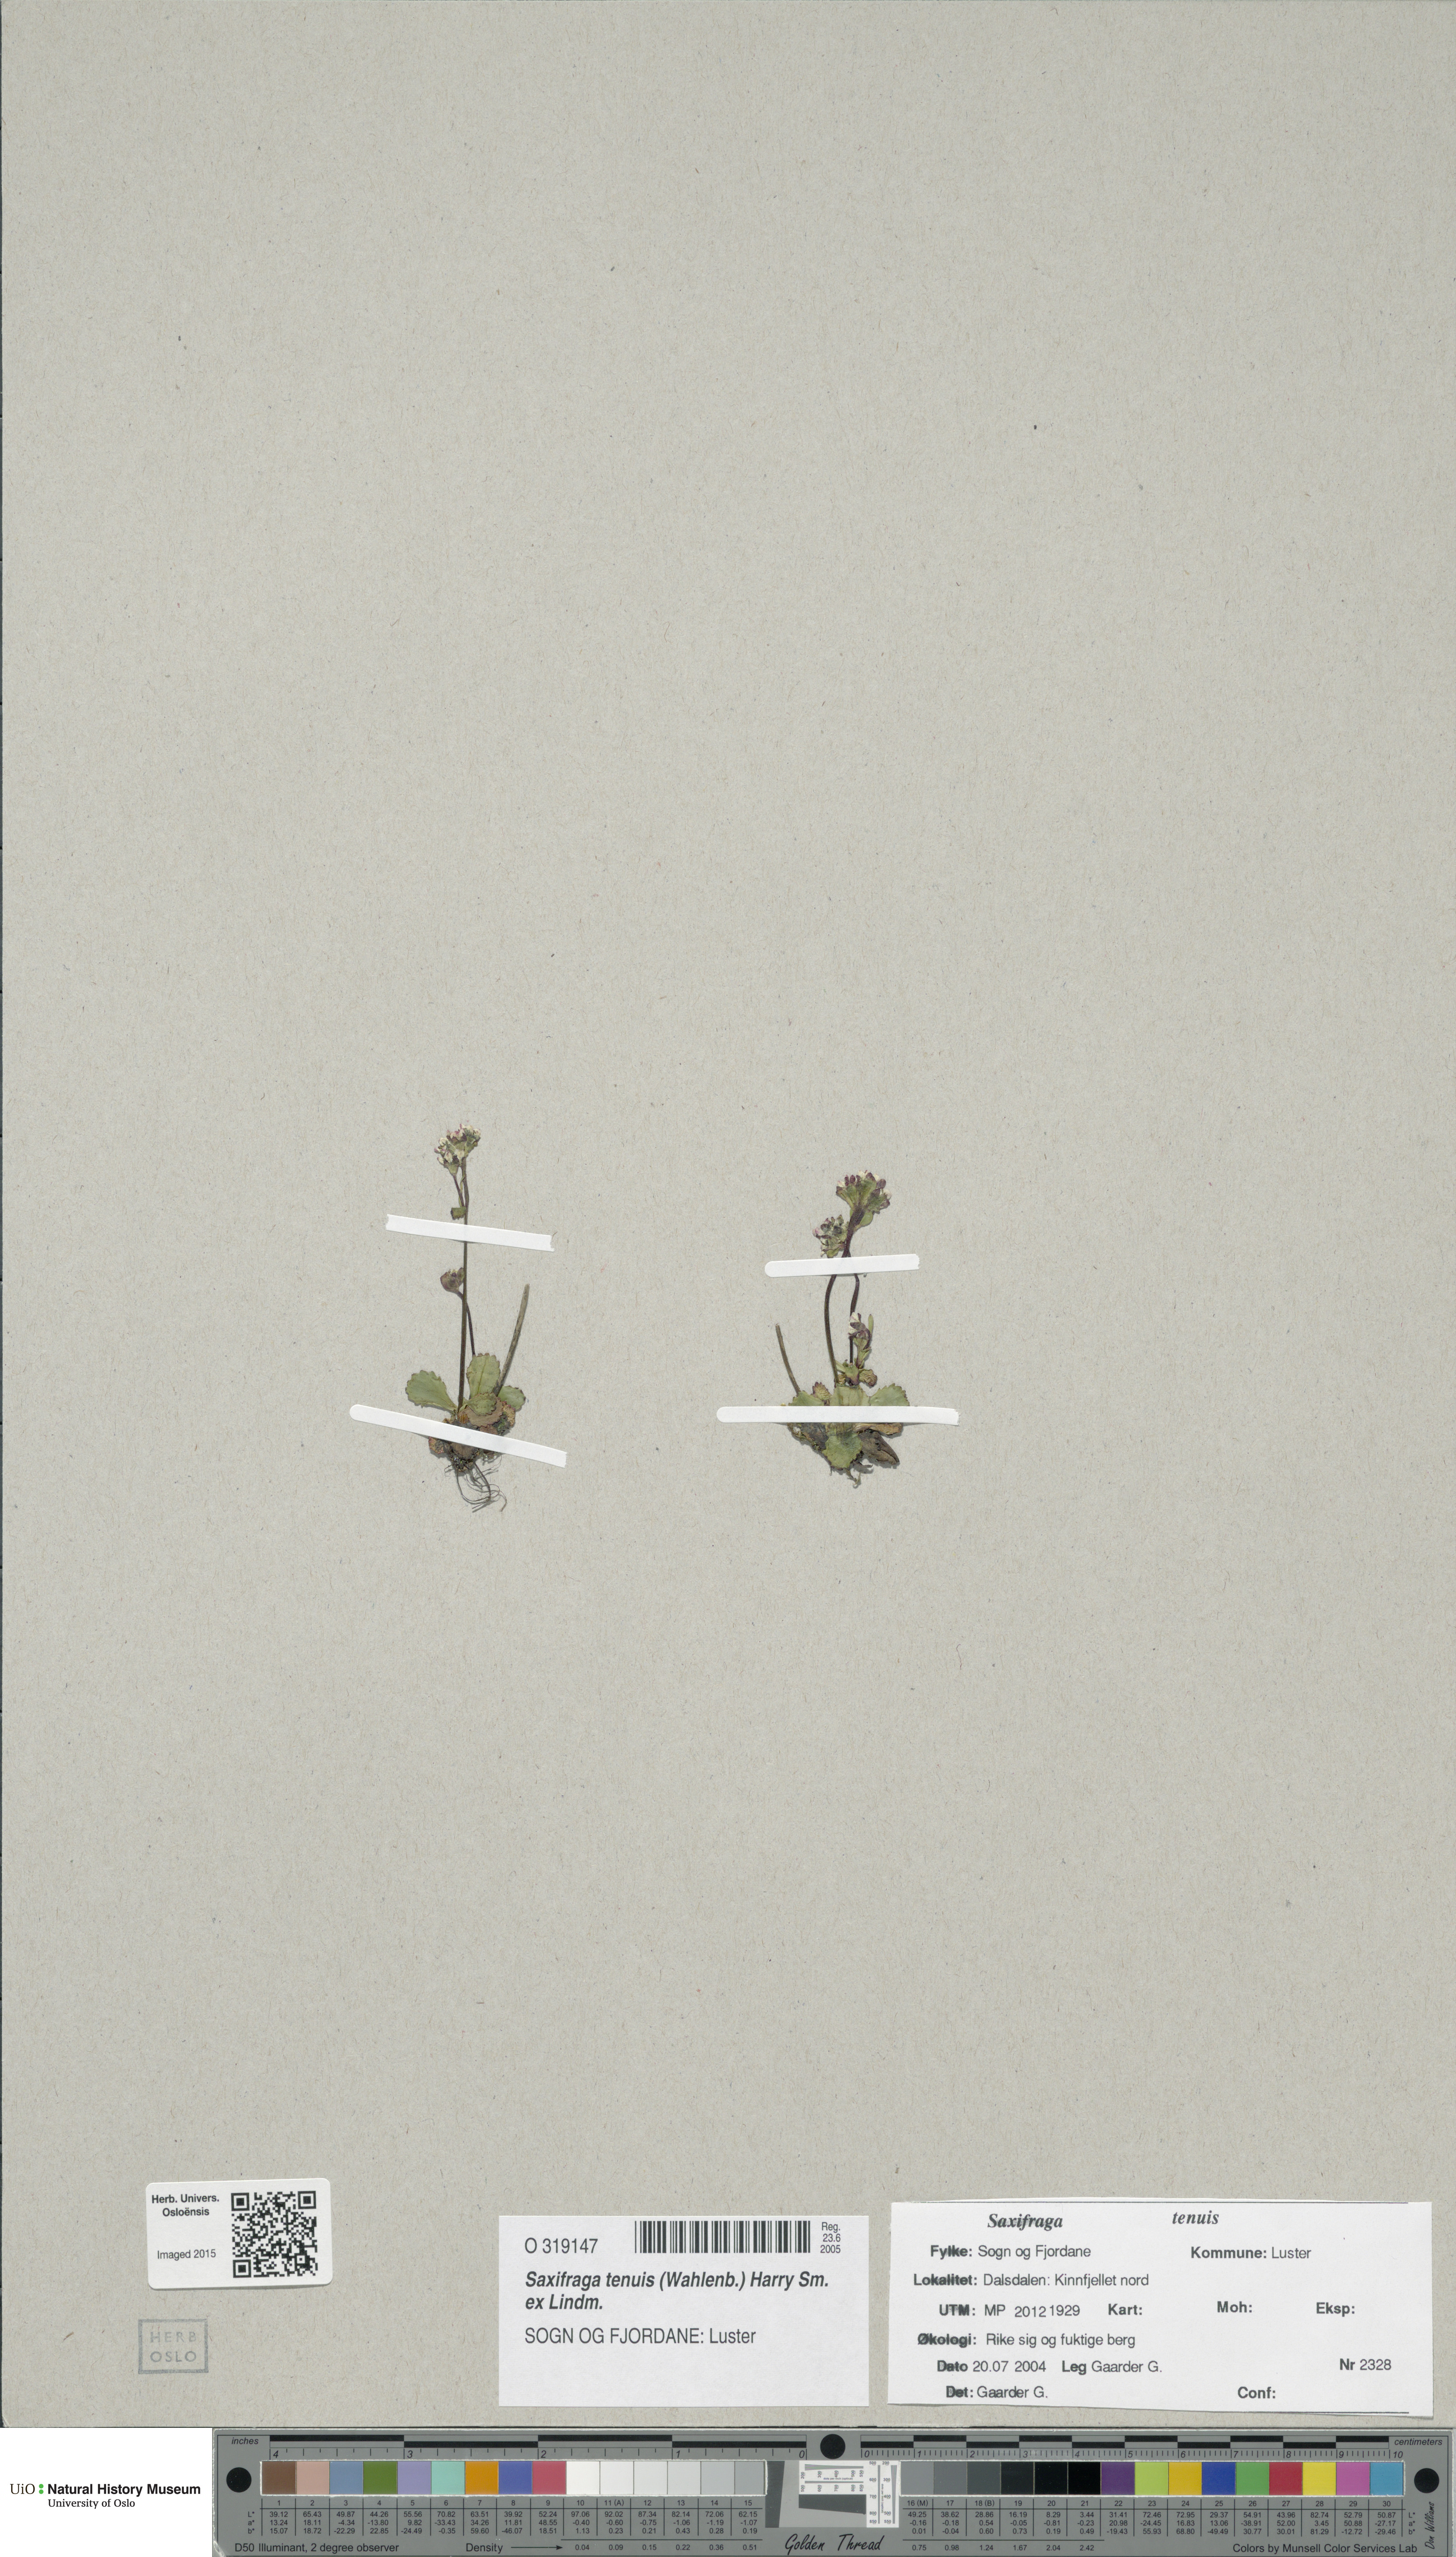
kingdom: Plantae
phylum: Tracheophyta
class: Magnoliopsida
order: Saxifragales
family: Saxifragaceae
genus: Micranthes
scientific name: Micranthes tenuis
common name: Ottertail pass saxifrage
